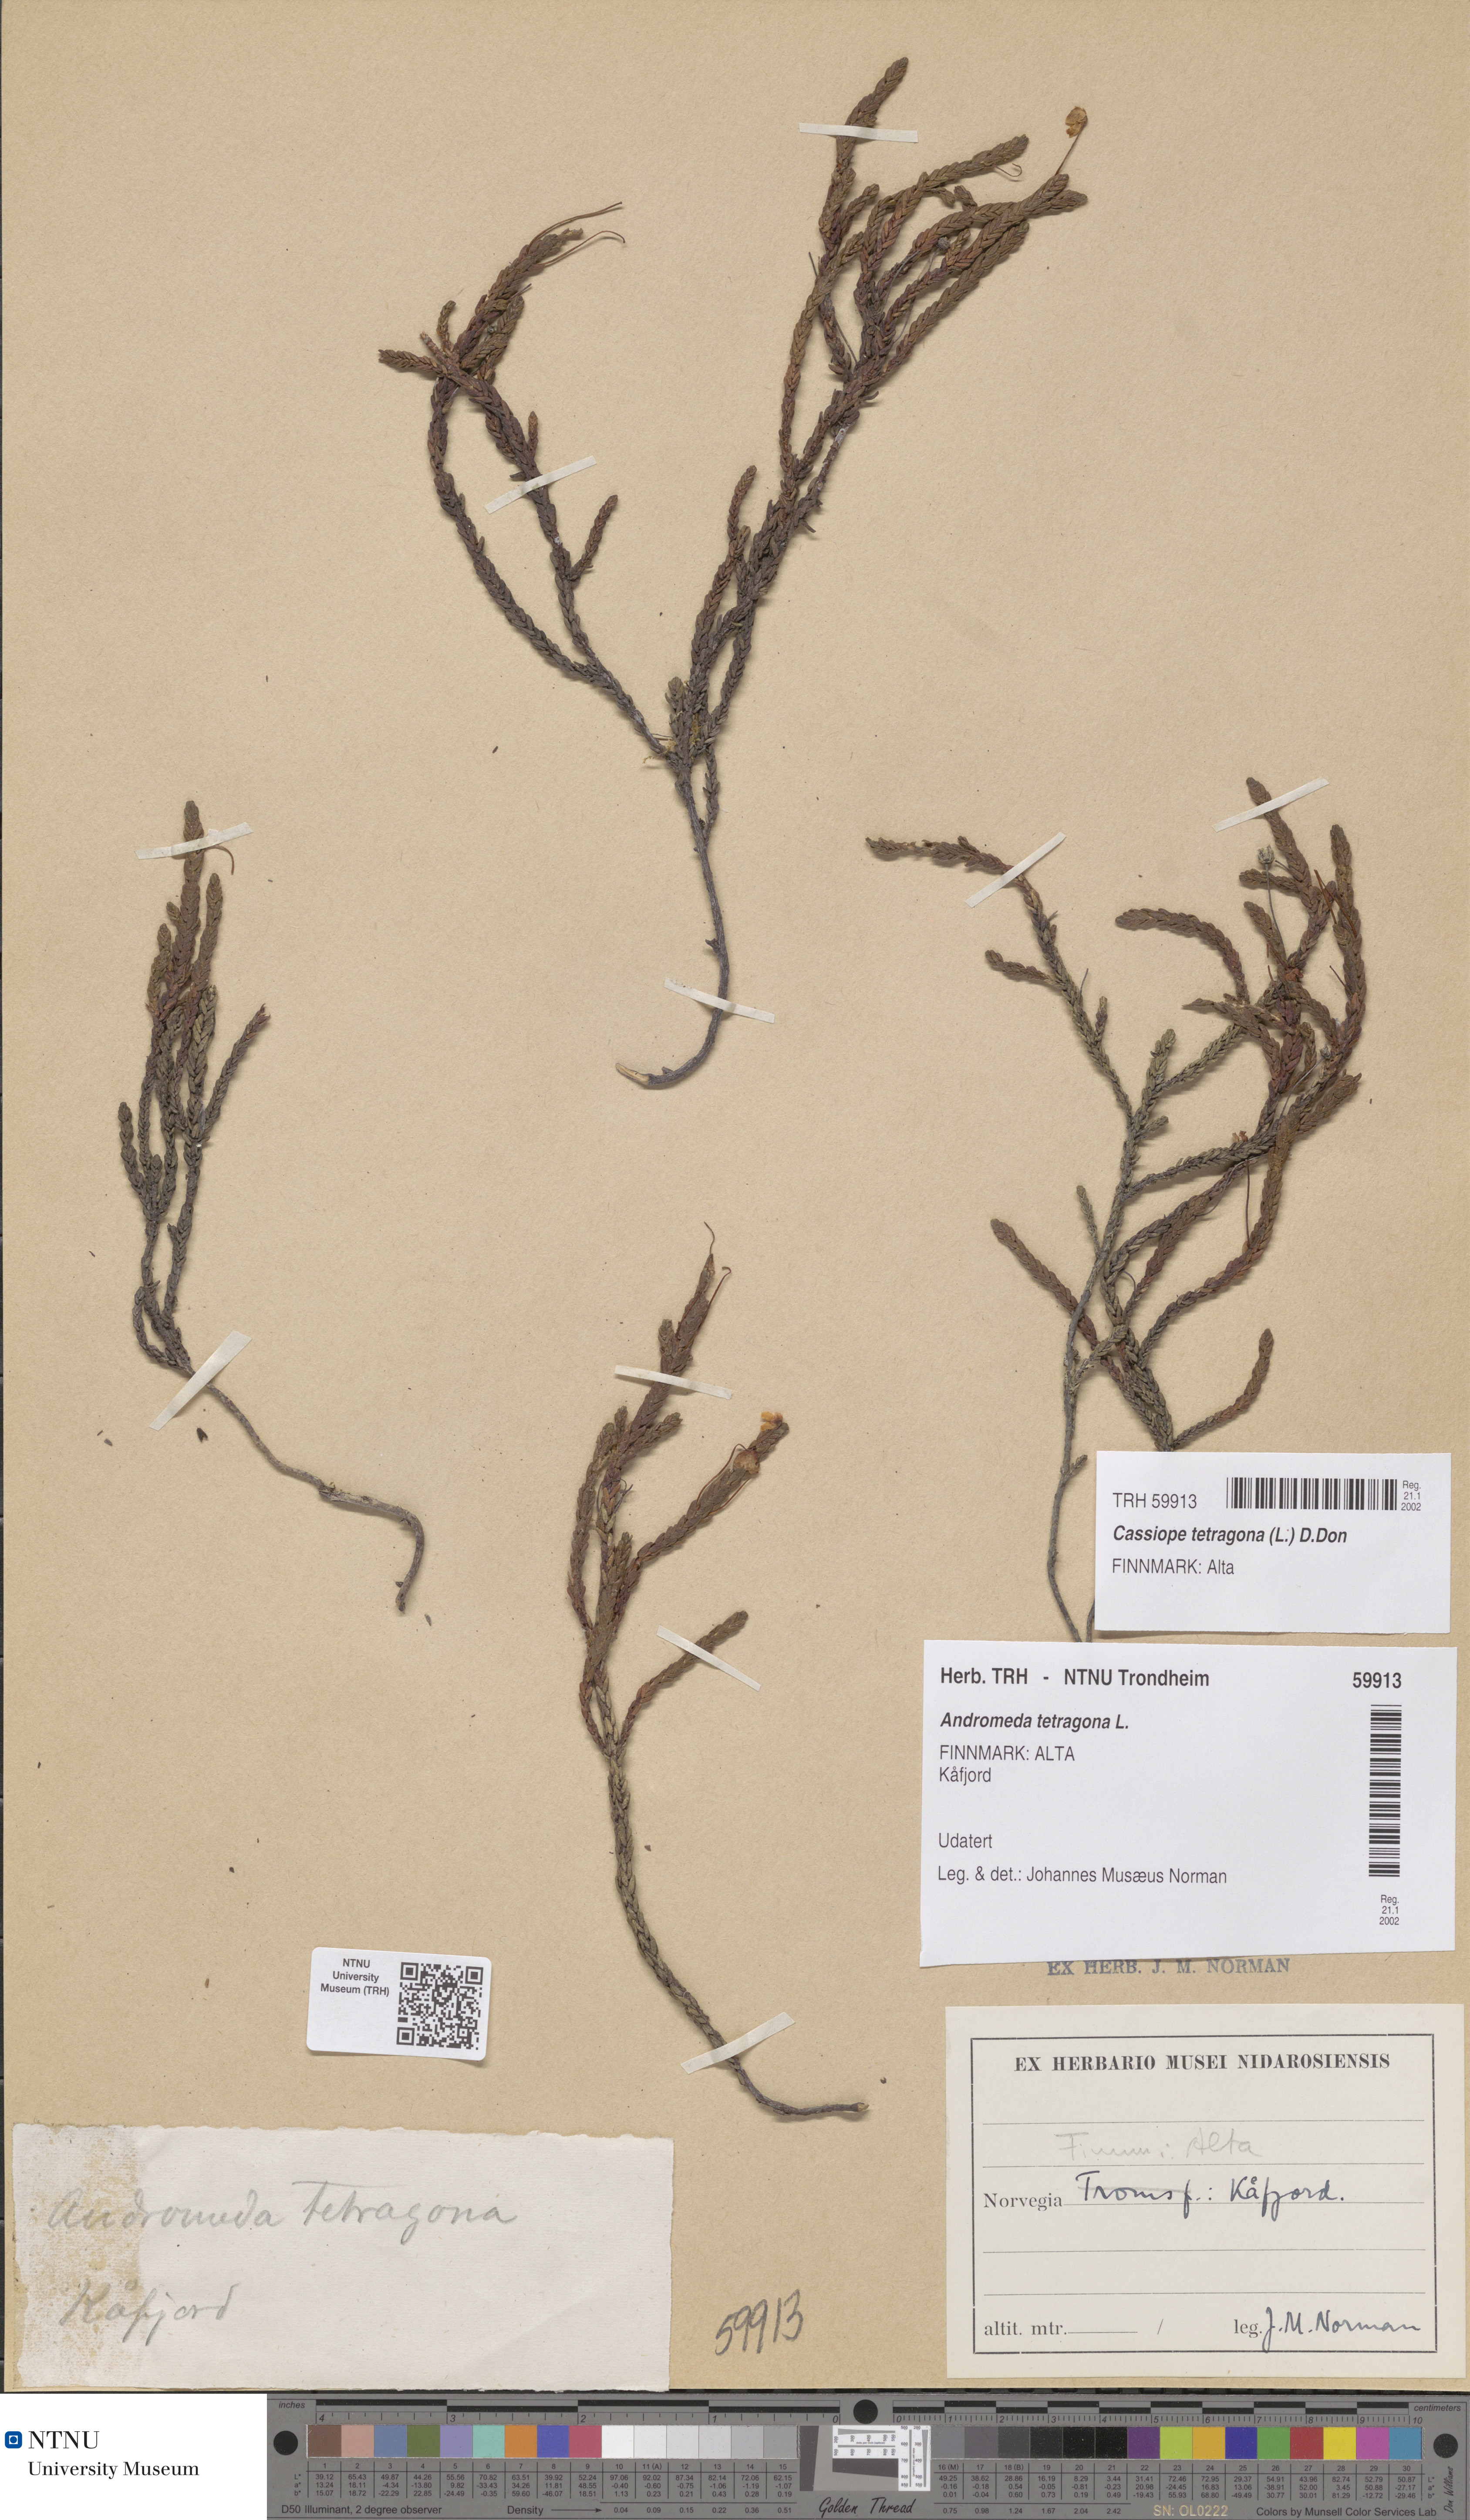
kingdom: Plantae
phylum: Tracheophyta
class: Magnoliopsida
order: Ericales
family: Ericaceae
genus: Cassiope
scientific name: Cassiope tetragona
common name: Arctic bell heather
